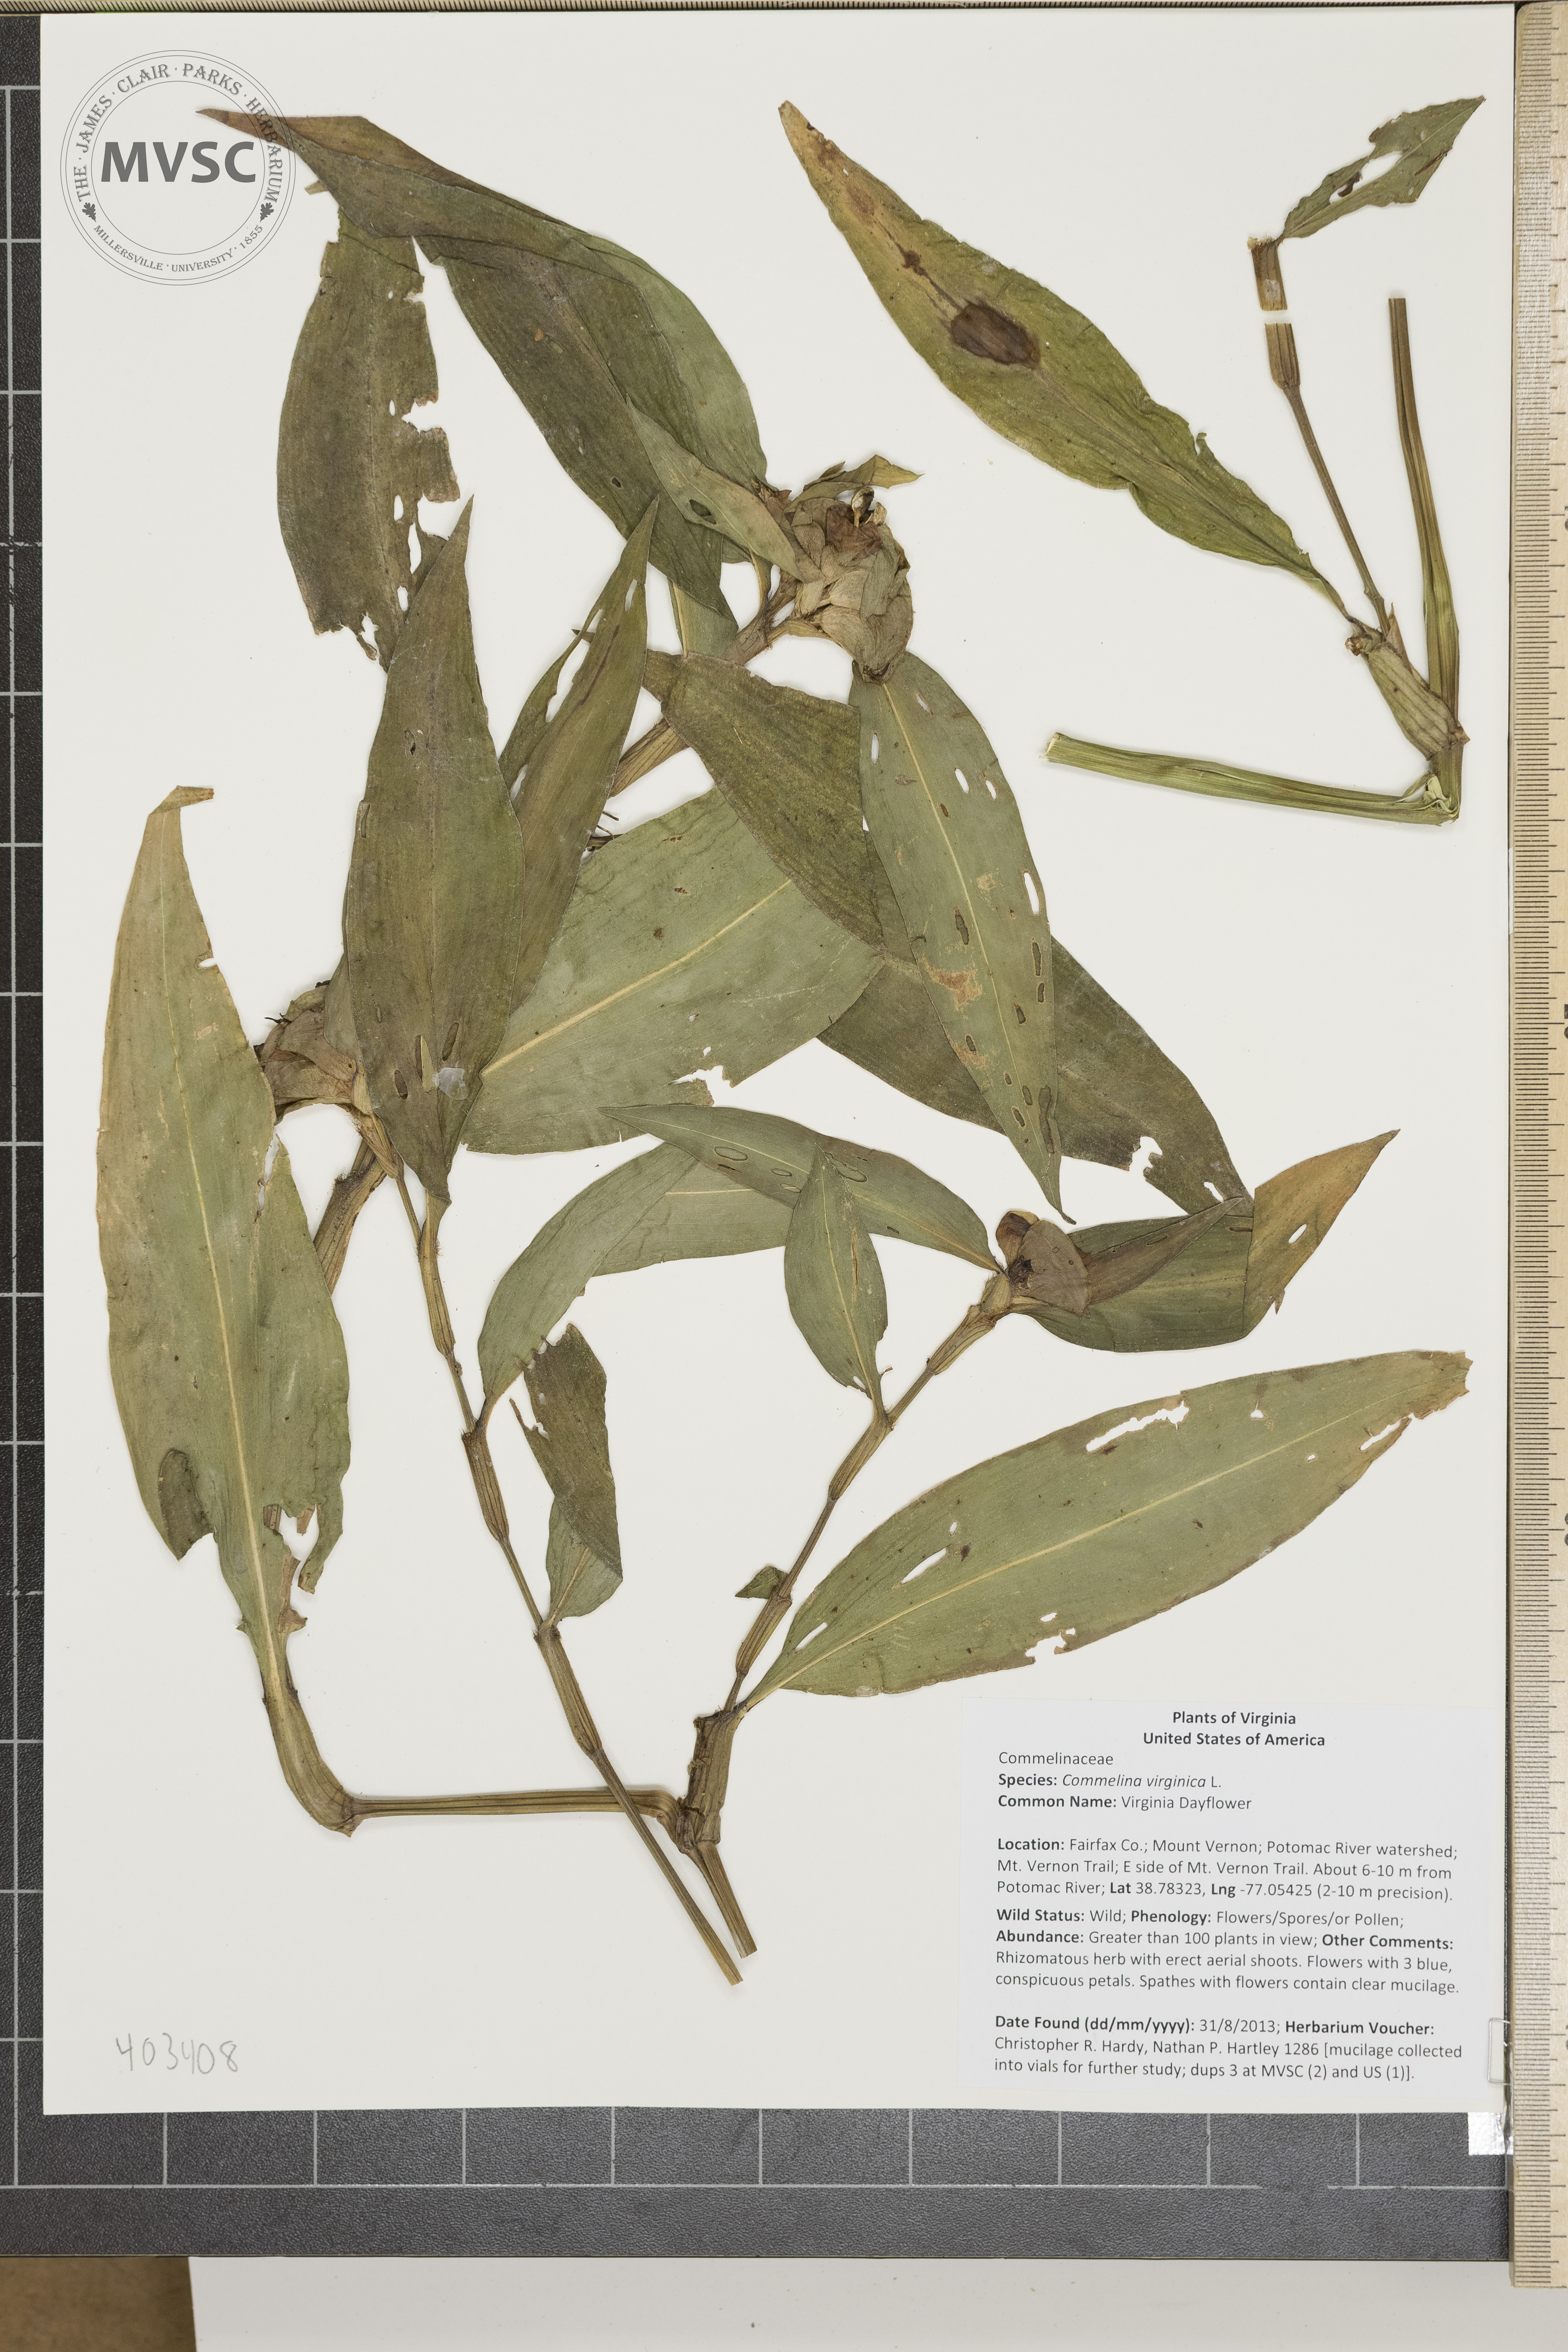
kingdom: Plantae
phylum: Tracheophyta
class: Liliopsida
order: Commelinales
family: Commelinaceae
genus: Commelina
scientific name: Commelina virginica
